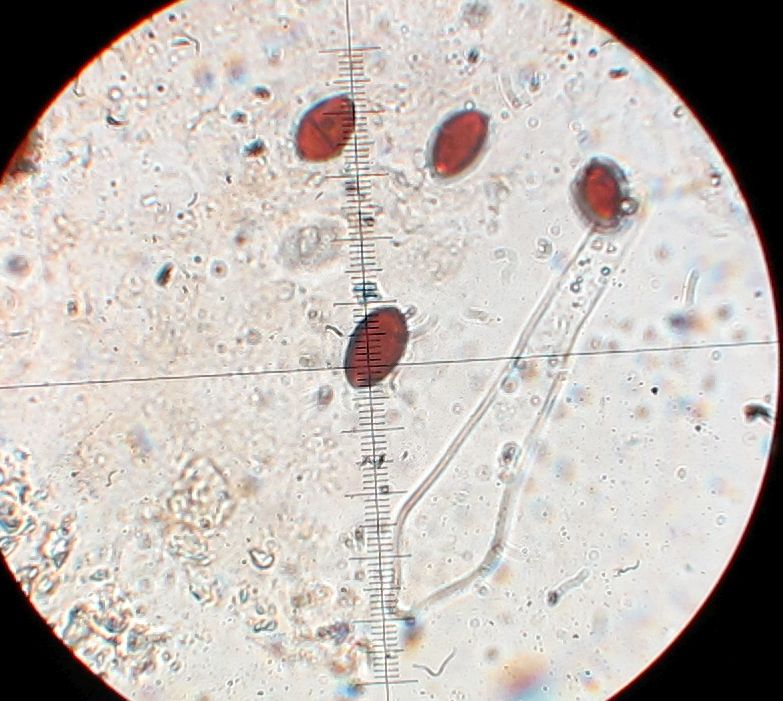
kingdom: Fungi
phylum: Basidiomycota
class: Agaricomycetes
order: Agaricales
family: Psathyrellaceae
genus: Coprinellus
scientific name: Coprinellus
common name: blækhat
